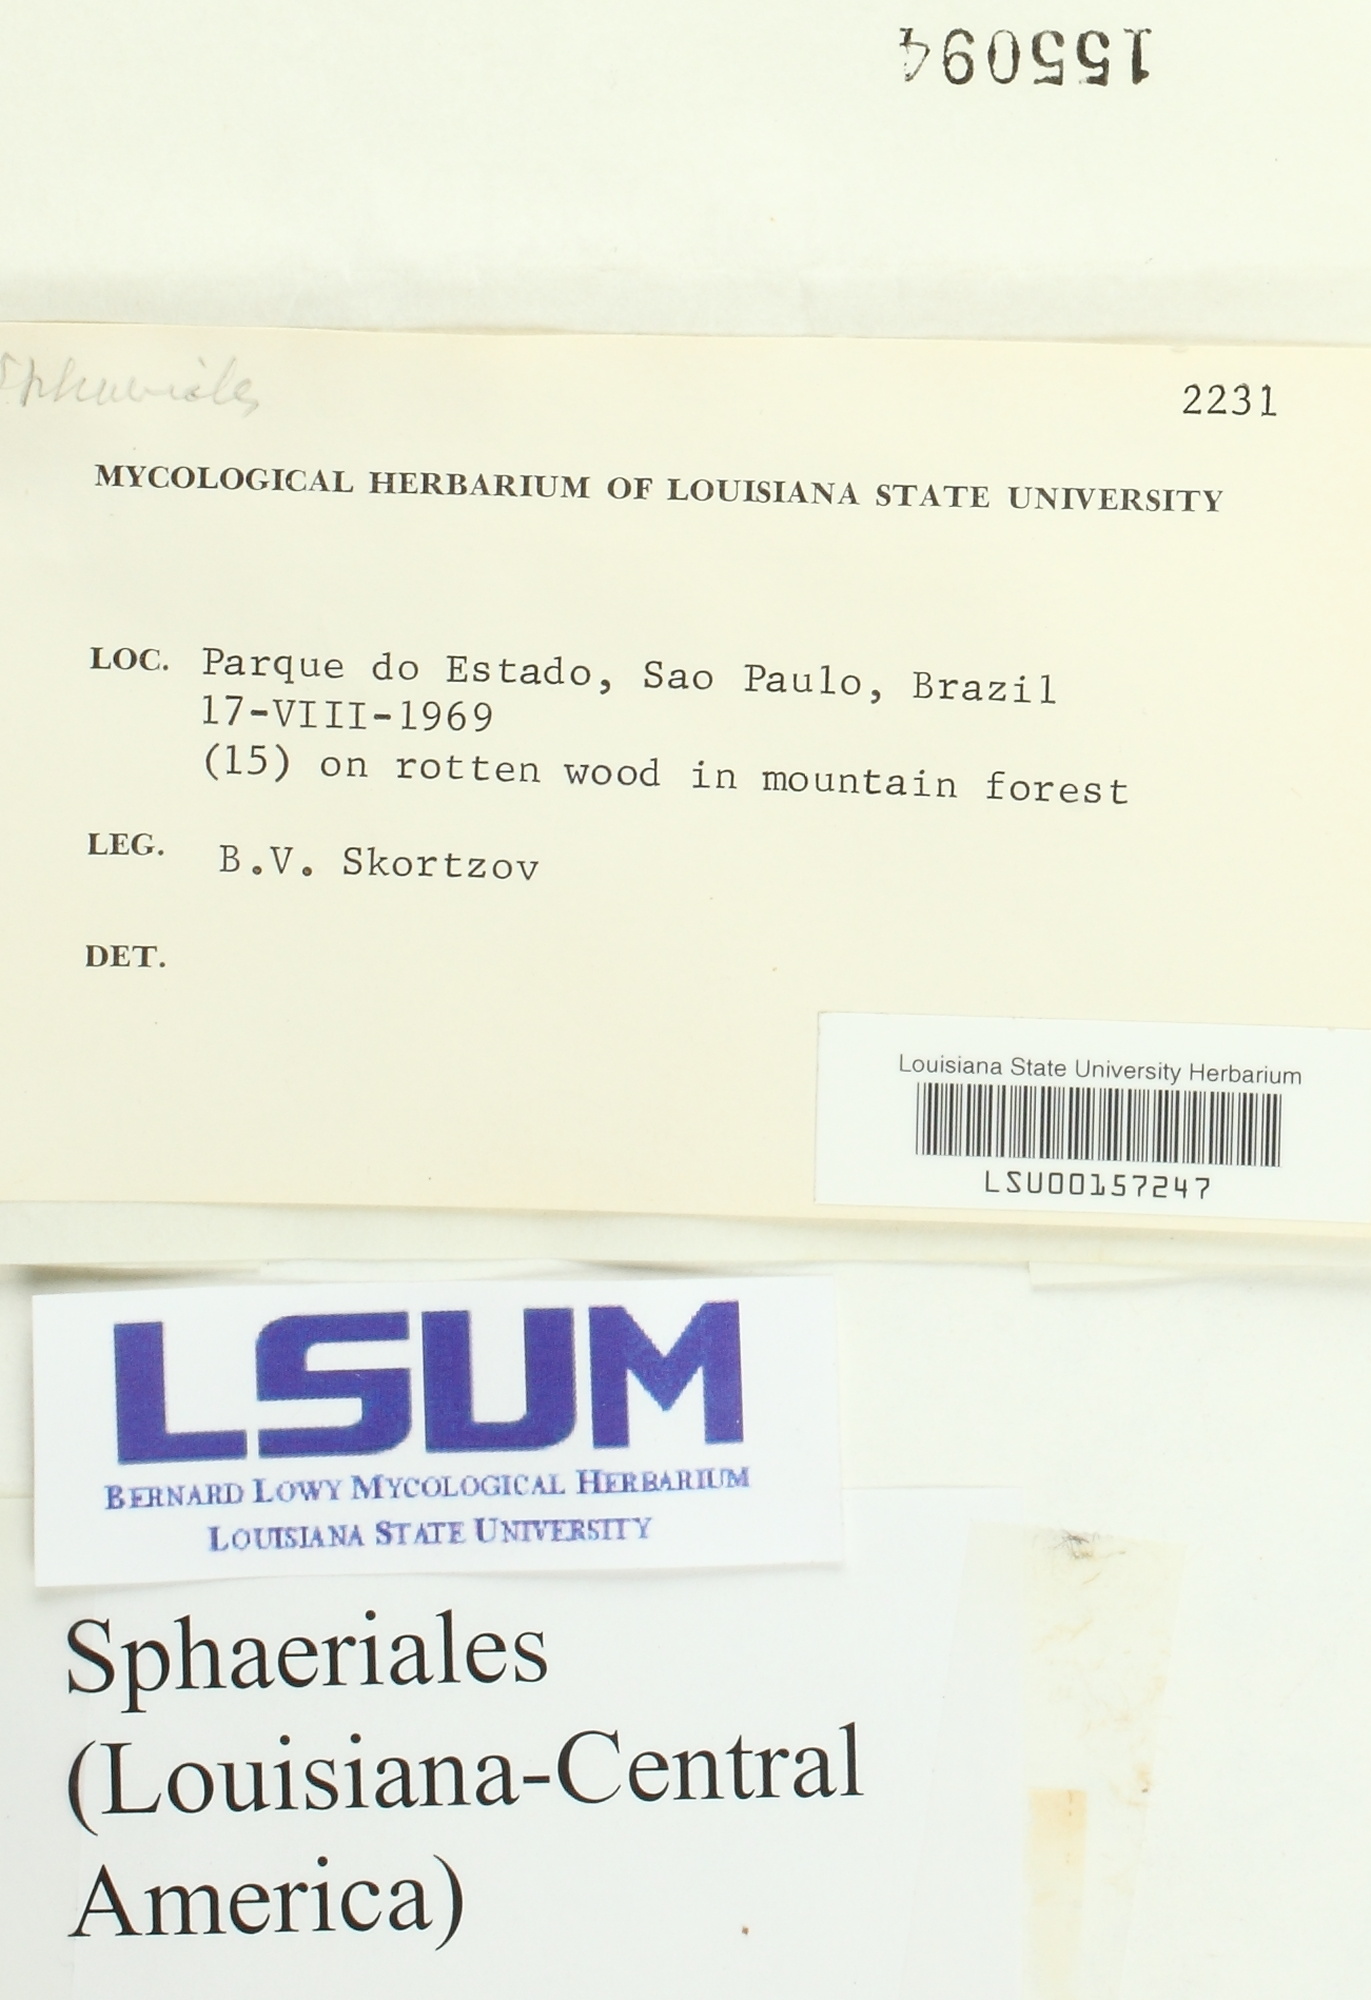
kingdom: Fungi
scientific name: Fungi
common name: Fungi
